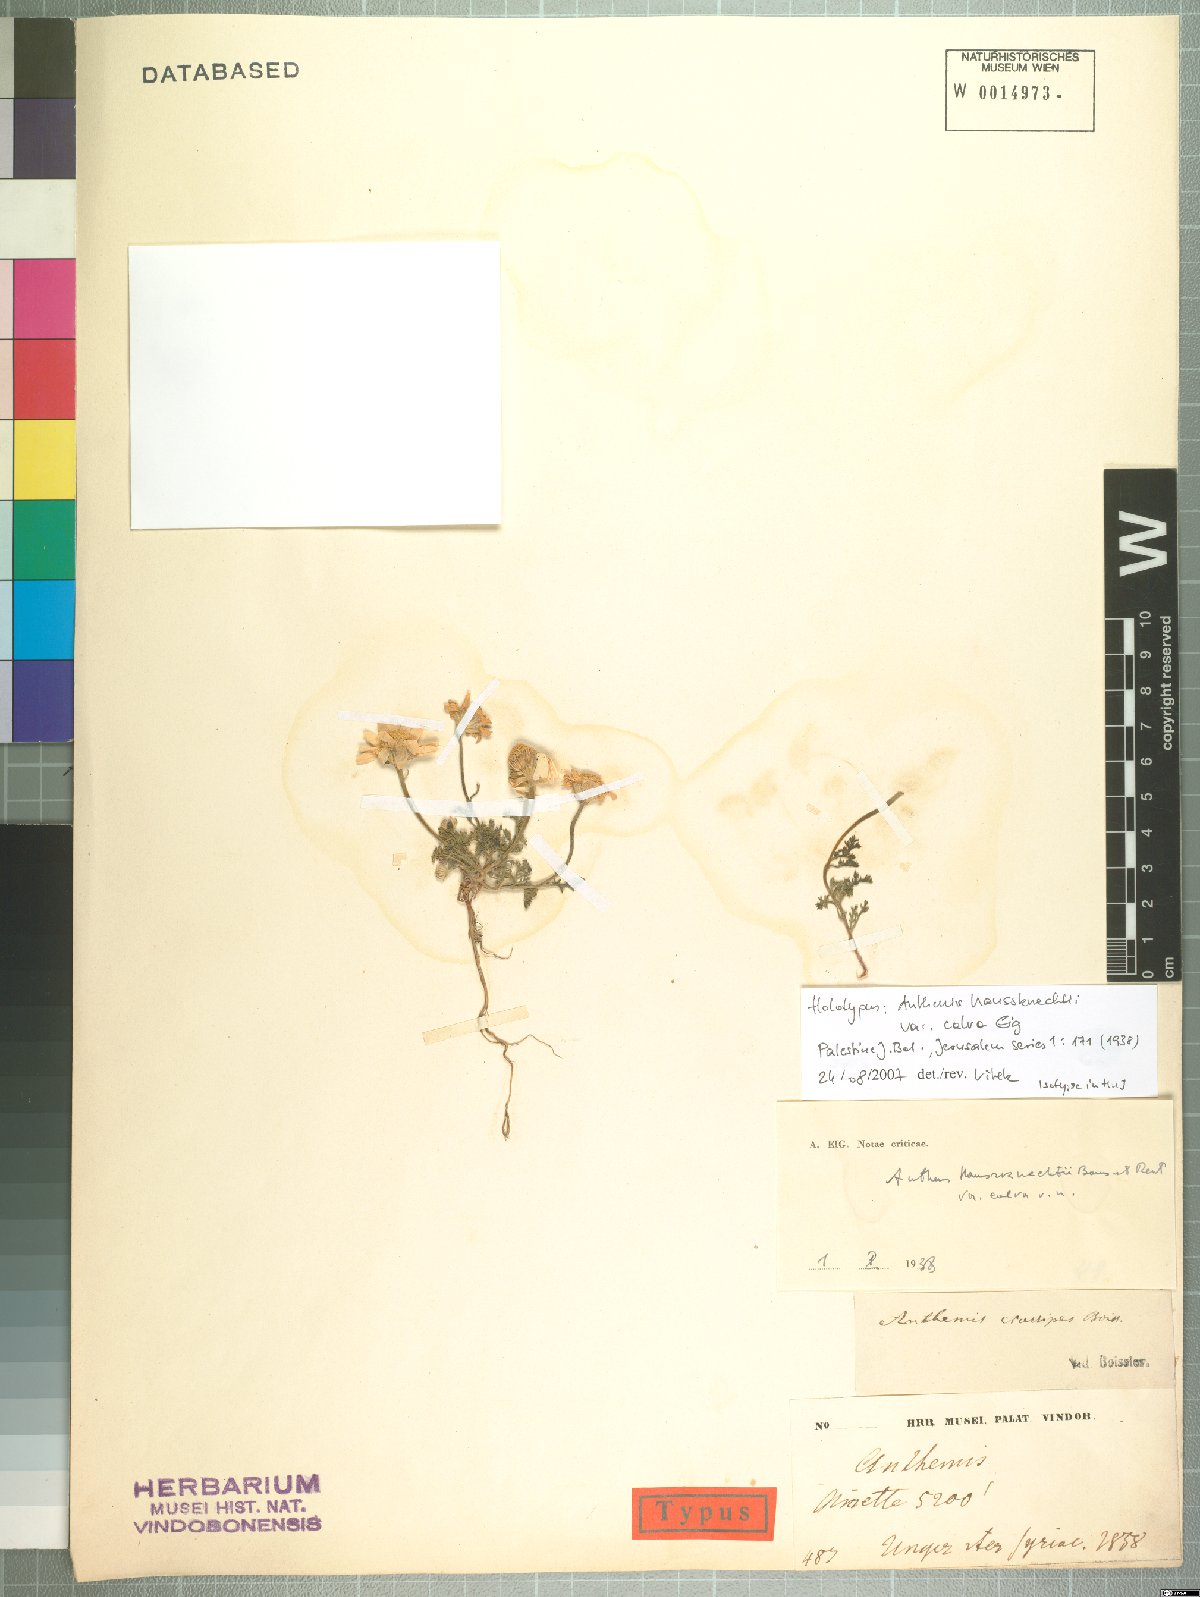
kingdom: Plantae
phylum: Tracheophyta
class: Magnoliopsida
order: Asterales
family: Asteraceae
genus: Anthemis
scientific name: Anthemis haussknechtii
